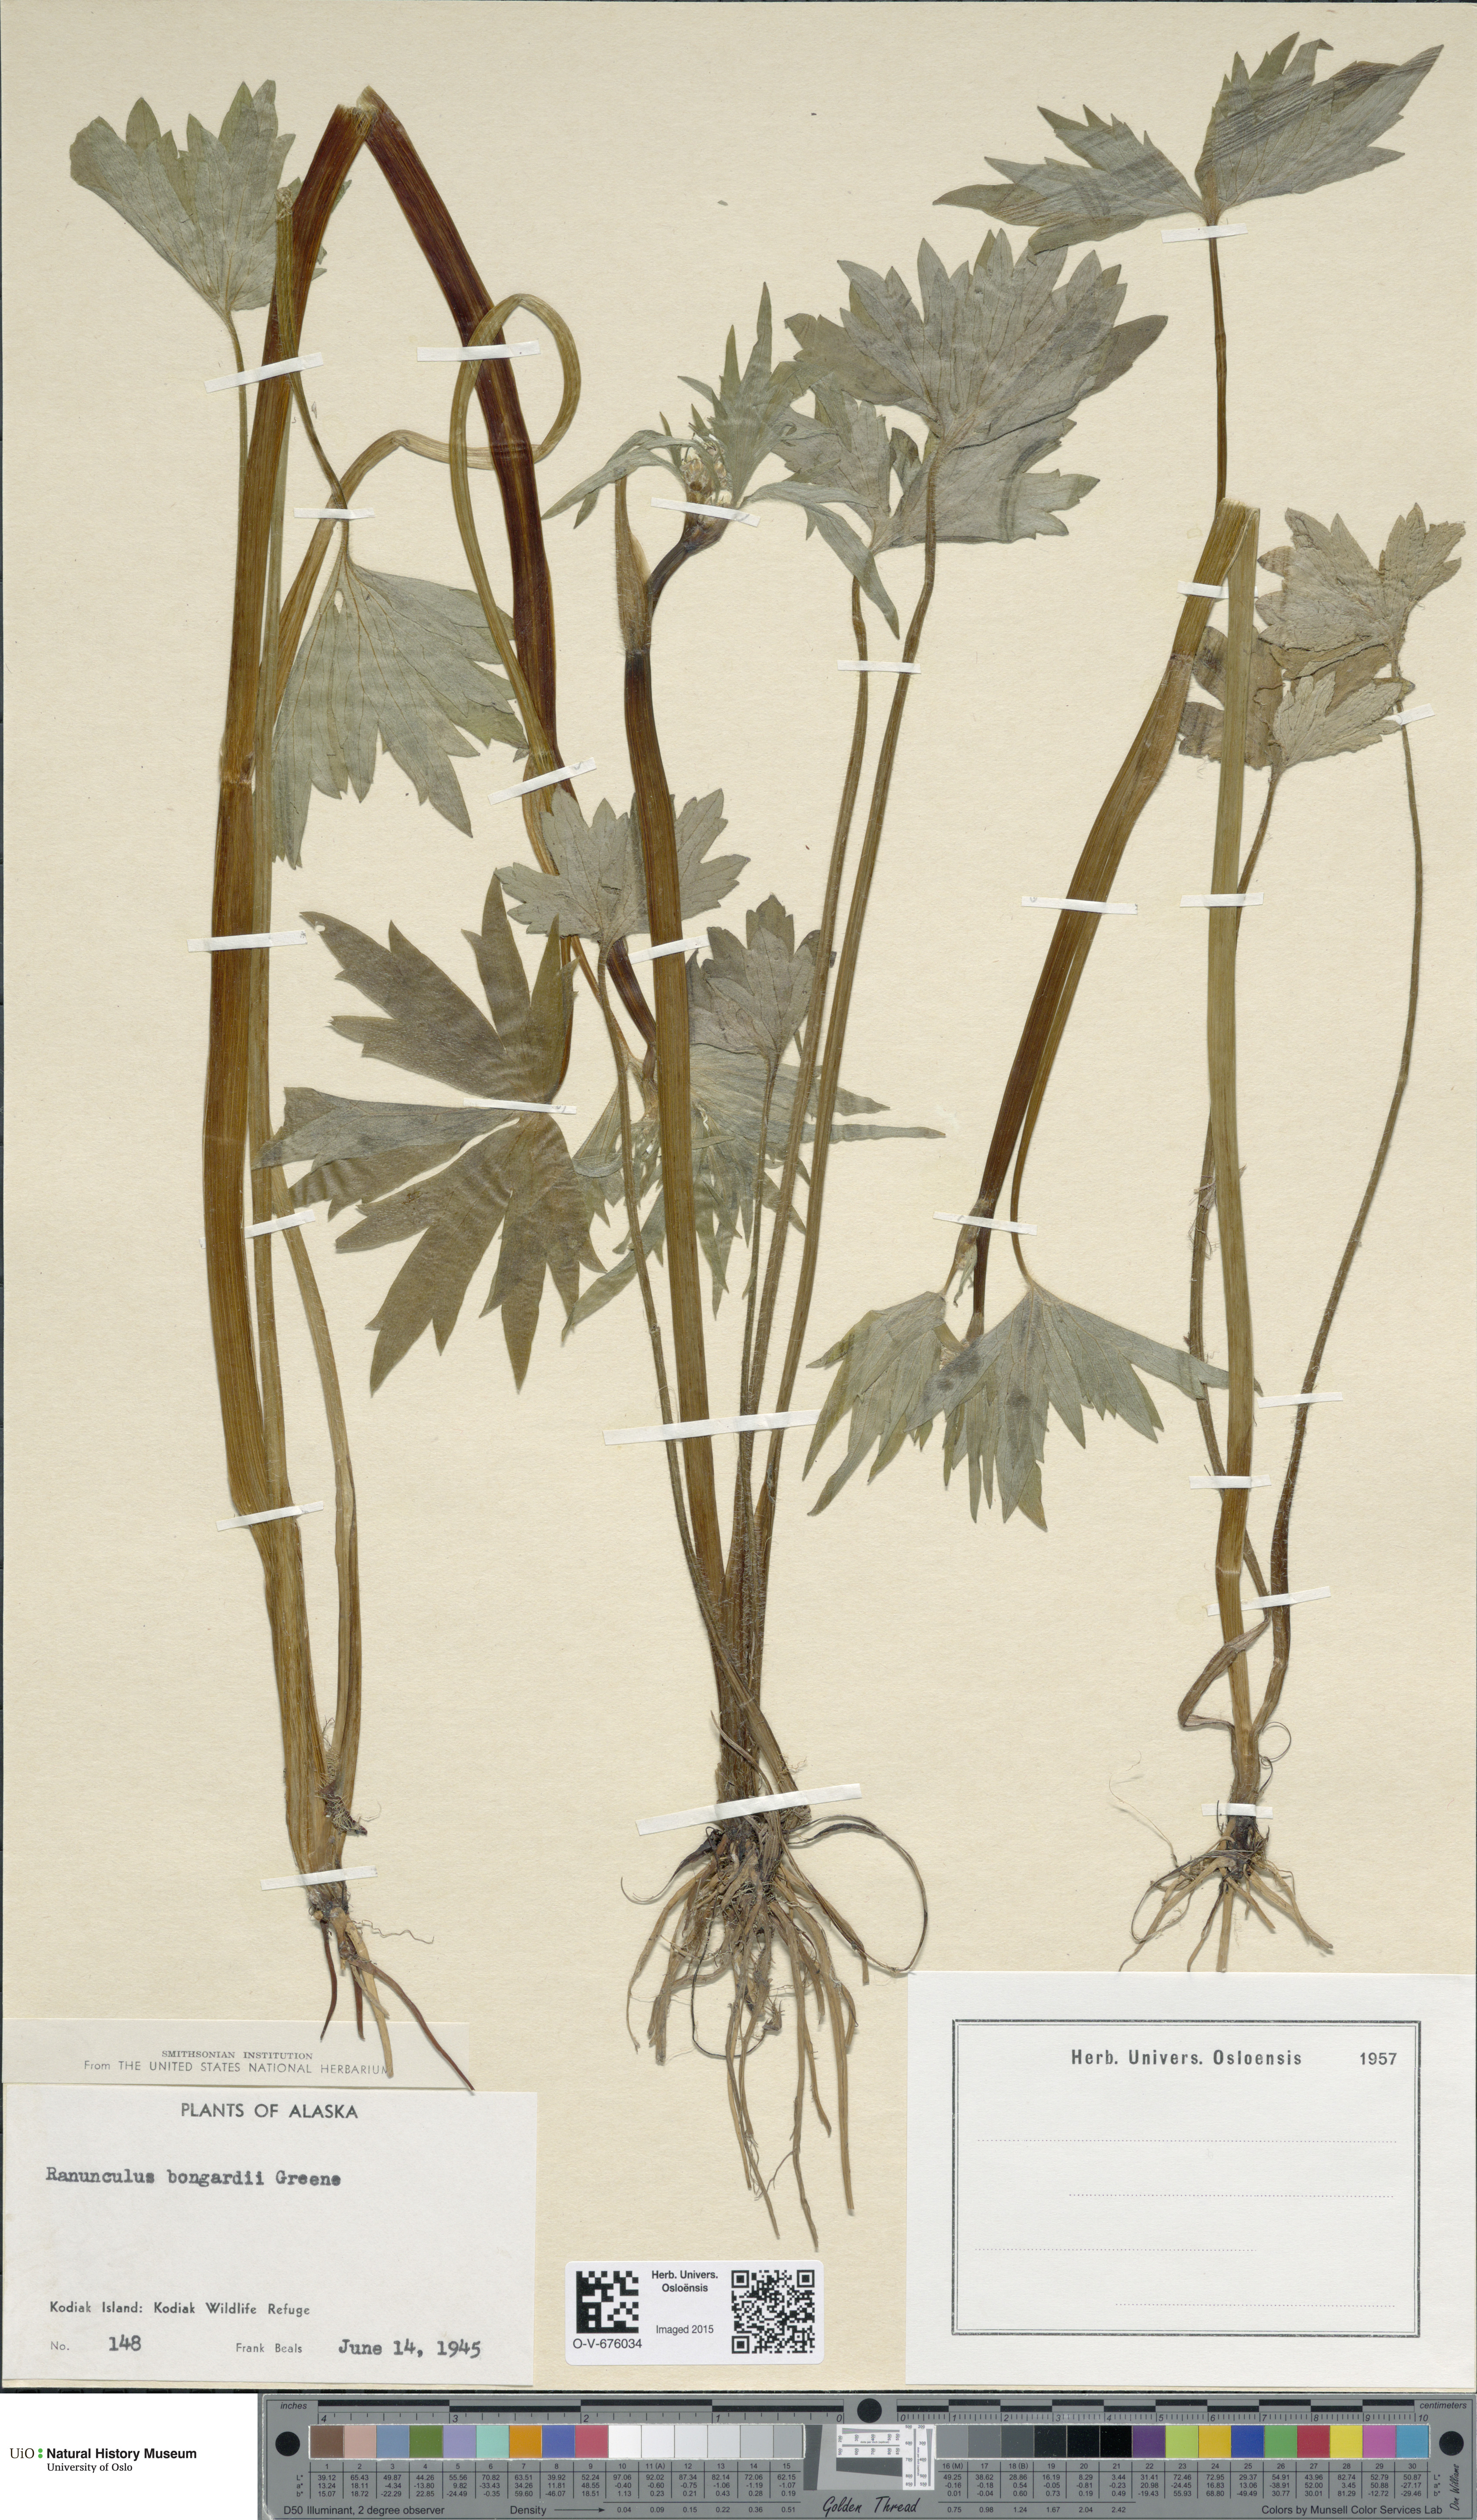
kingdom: Plantae
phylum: Tracheophyta
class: Magnoliopsida
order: Ranunculales
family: Ranunculaceae
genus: Ranunculus
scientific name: Ranunculus uncinatus
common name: Little buttercup
